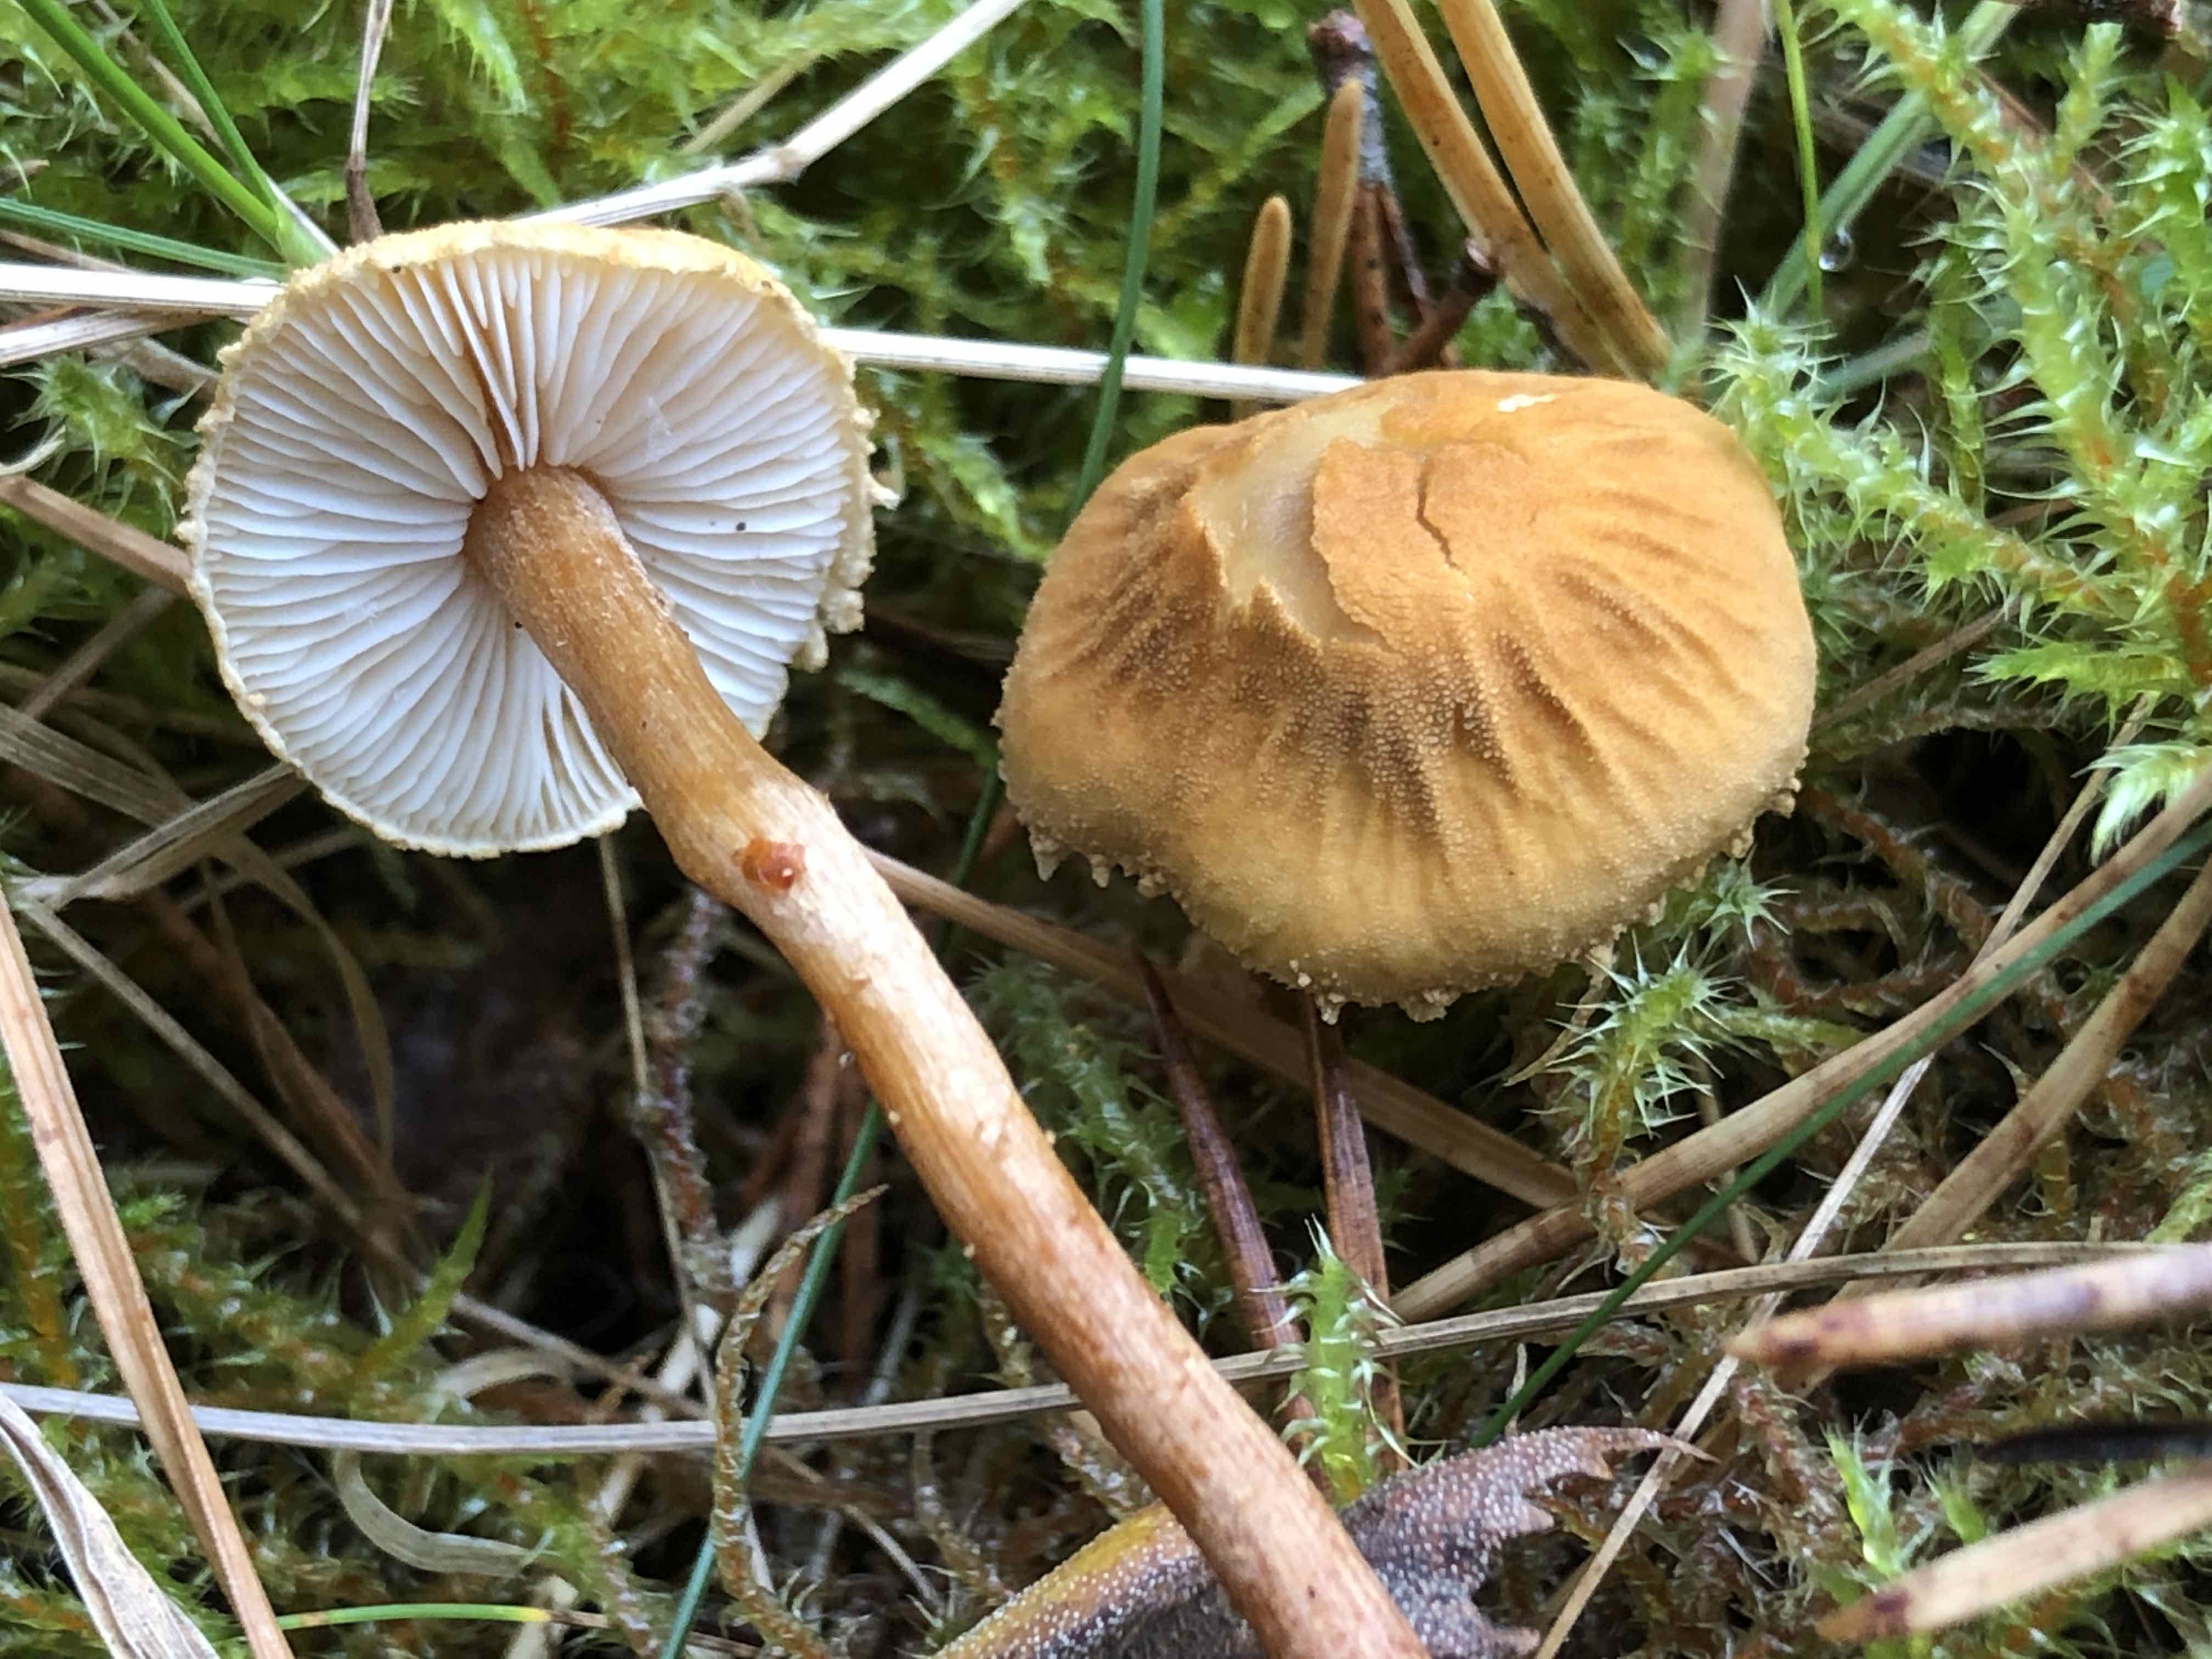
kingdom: Fungi
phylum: Basidiomycota
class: Agaricomycetes
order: Agaricales
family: Tricholomataceae
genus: Cystoderma
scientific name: Cystoderma amianthinum
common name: okkergul grynhat
